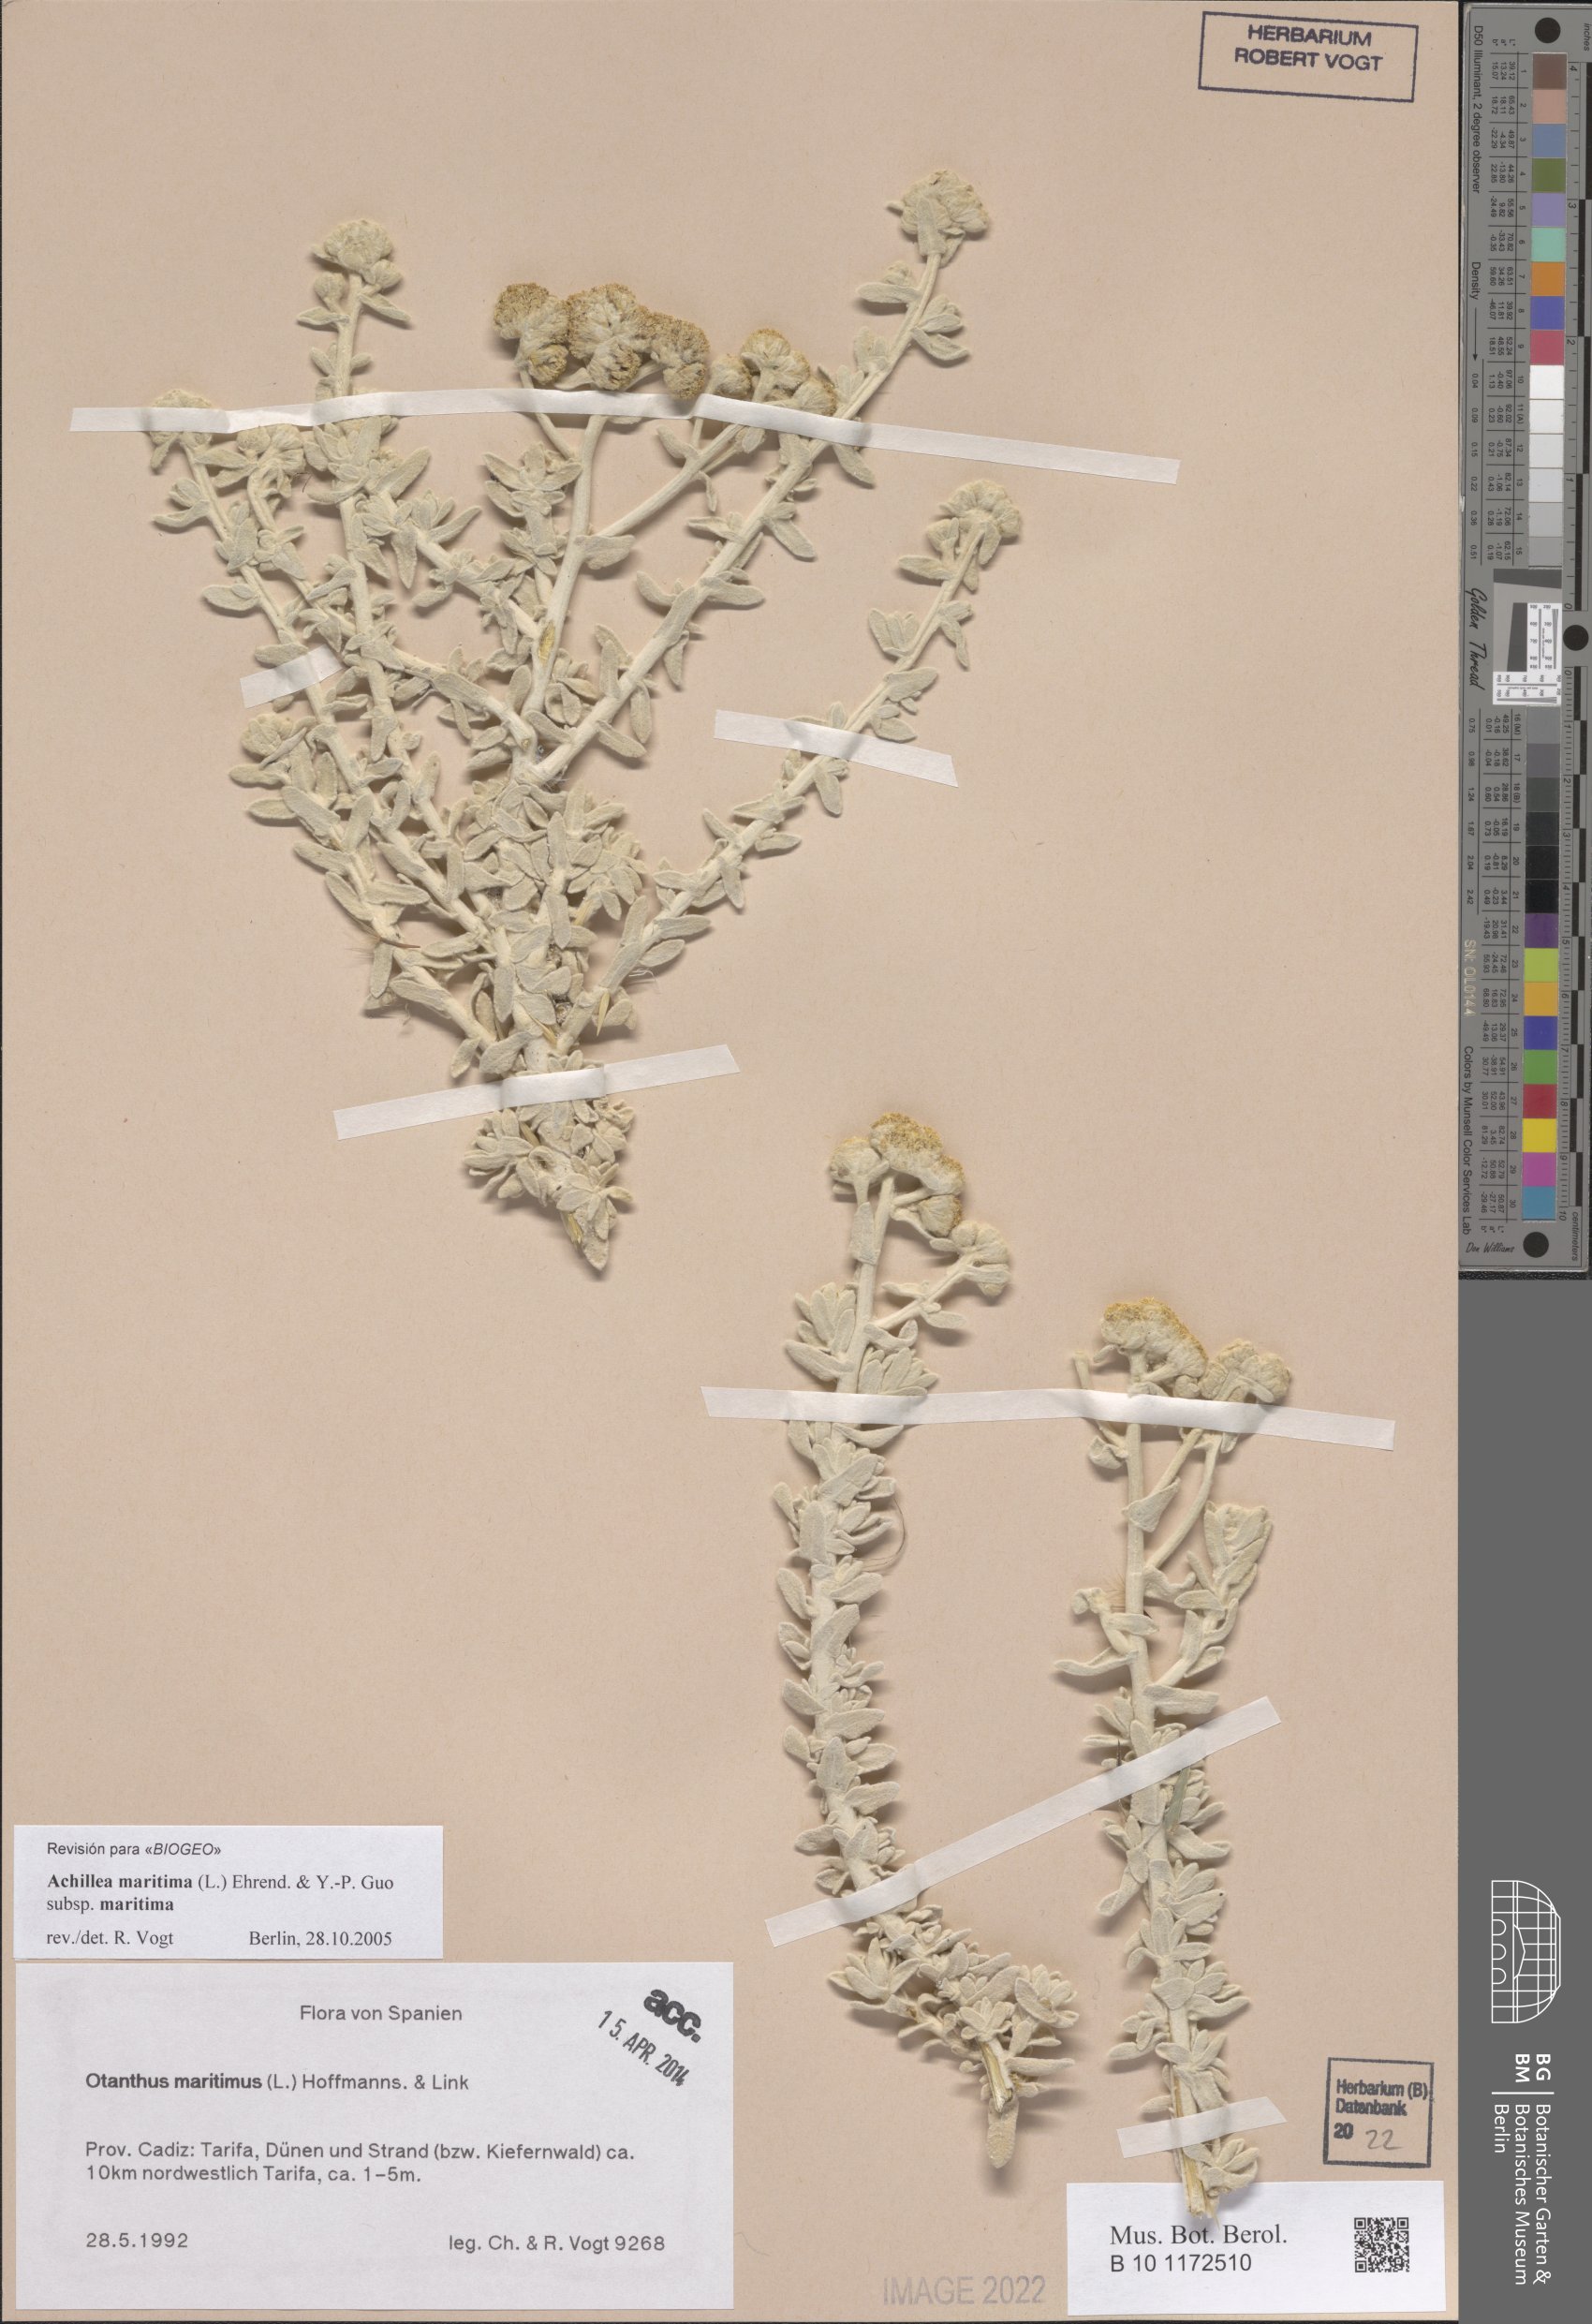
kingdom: Plantae
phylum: Tracheophyta
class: Magnoliopsida
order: Asterales
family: Asteraceae
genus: Achillea
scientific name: Achillea maritima
